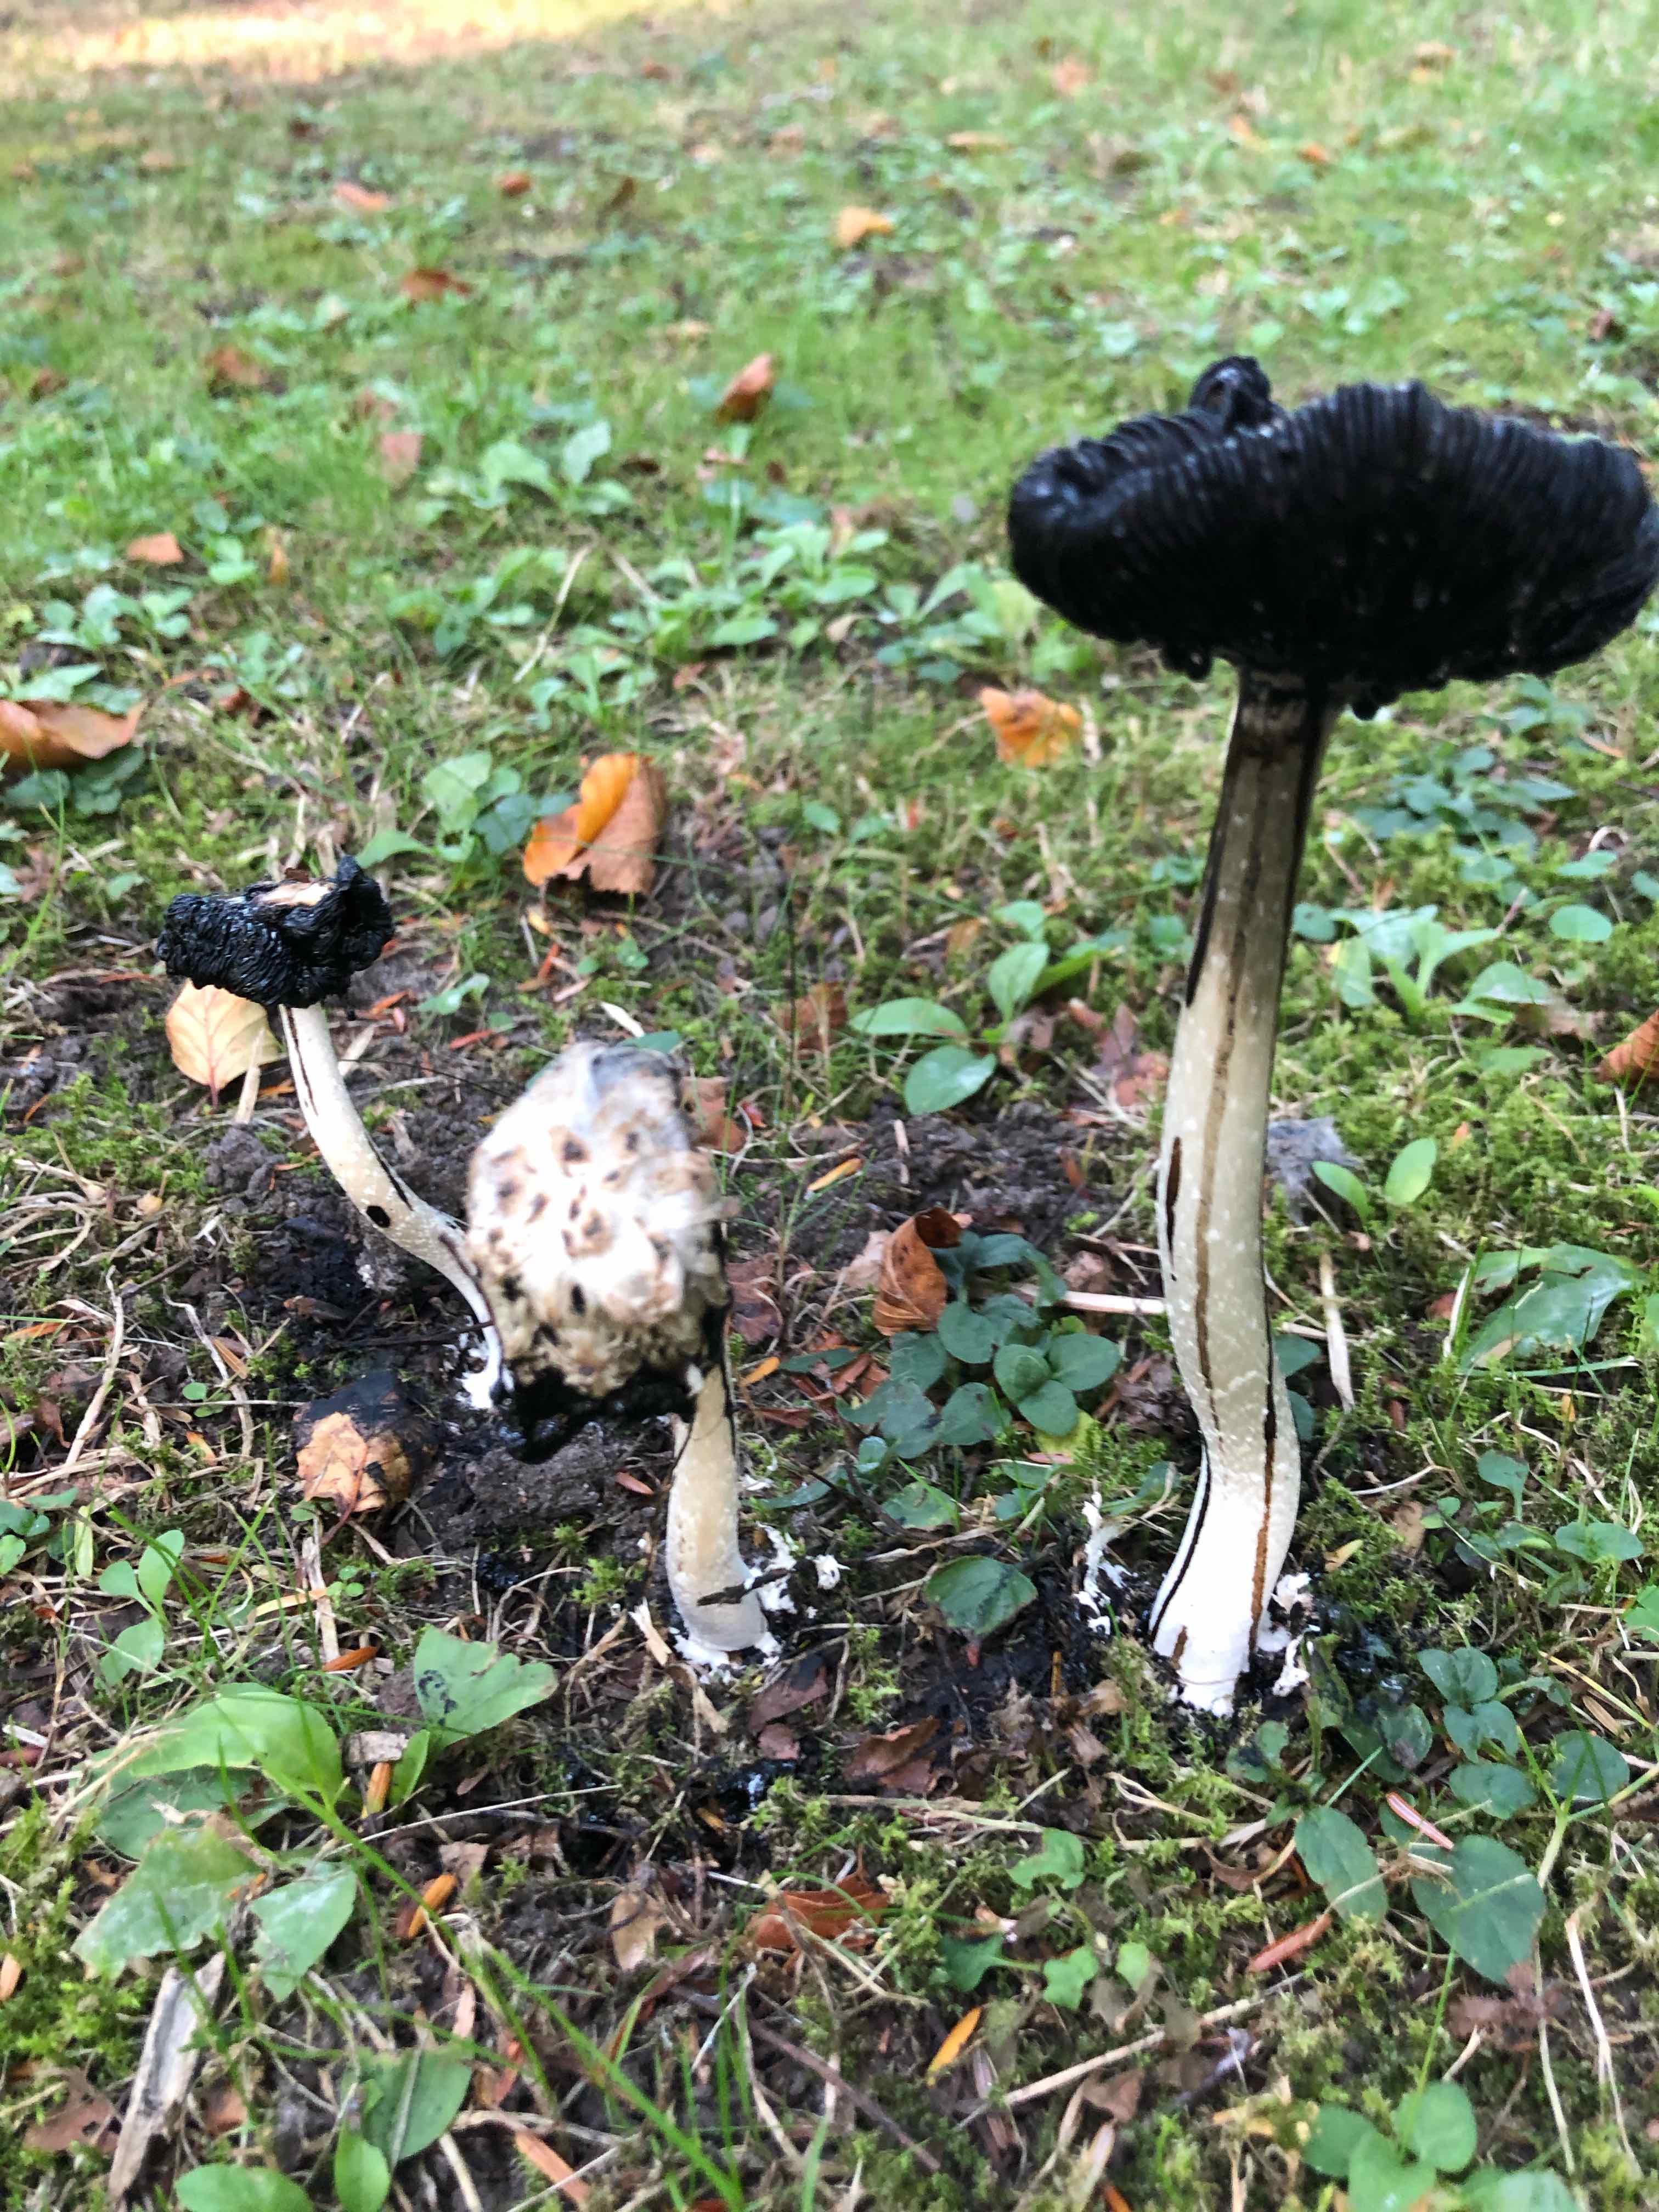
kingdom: Fungi
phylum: Basidiomycota
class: Agaricomycetes
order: Agaricales
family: Agaricaceae
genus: Coprinus
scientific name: Coprinus comatus
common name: stor parykhat
